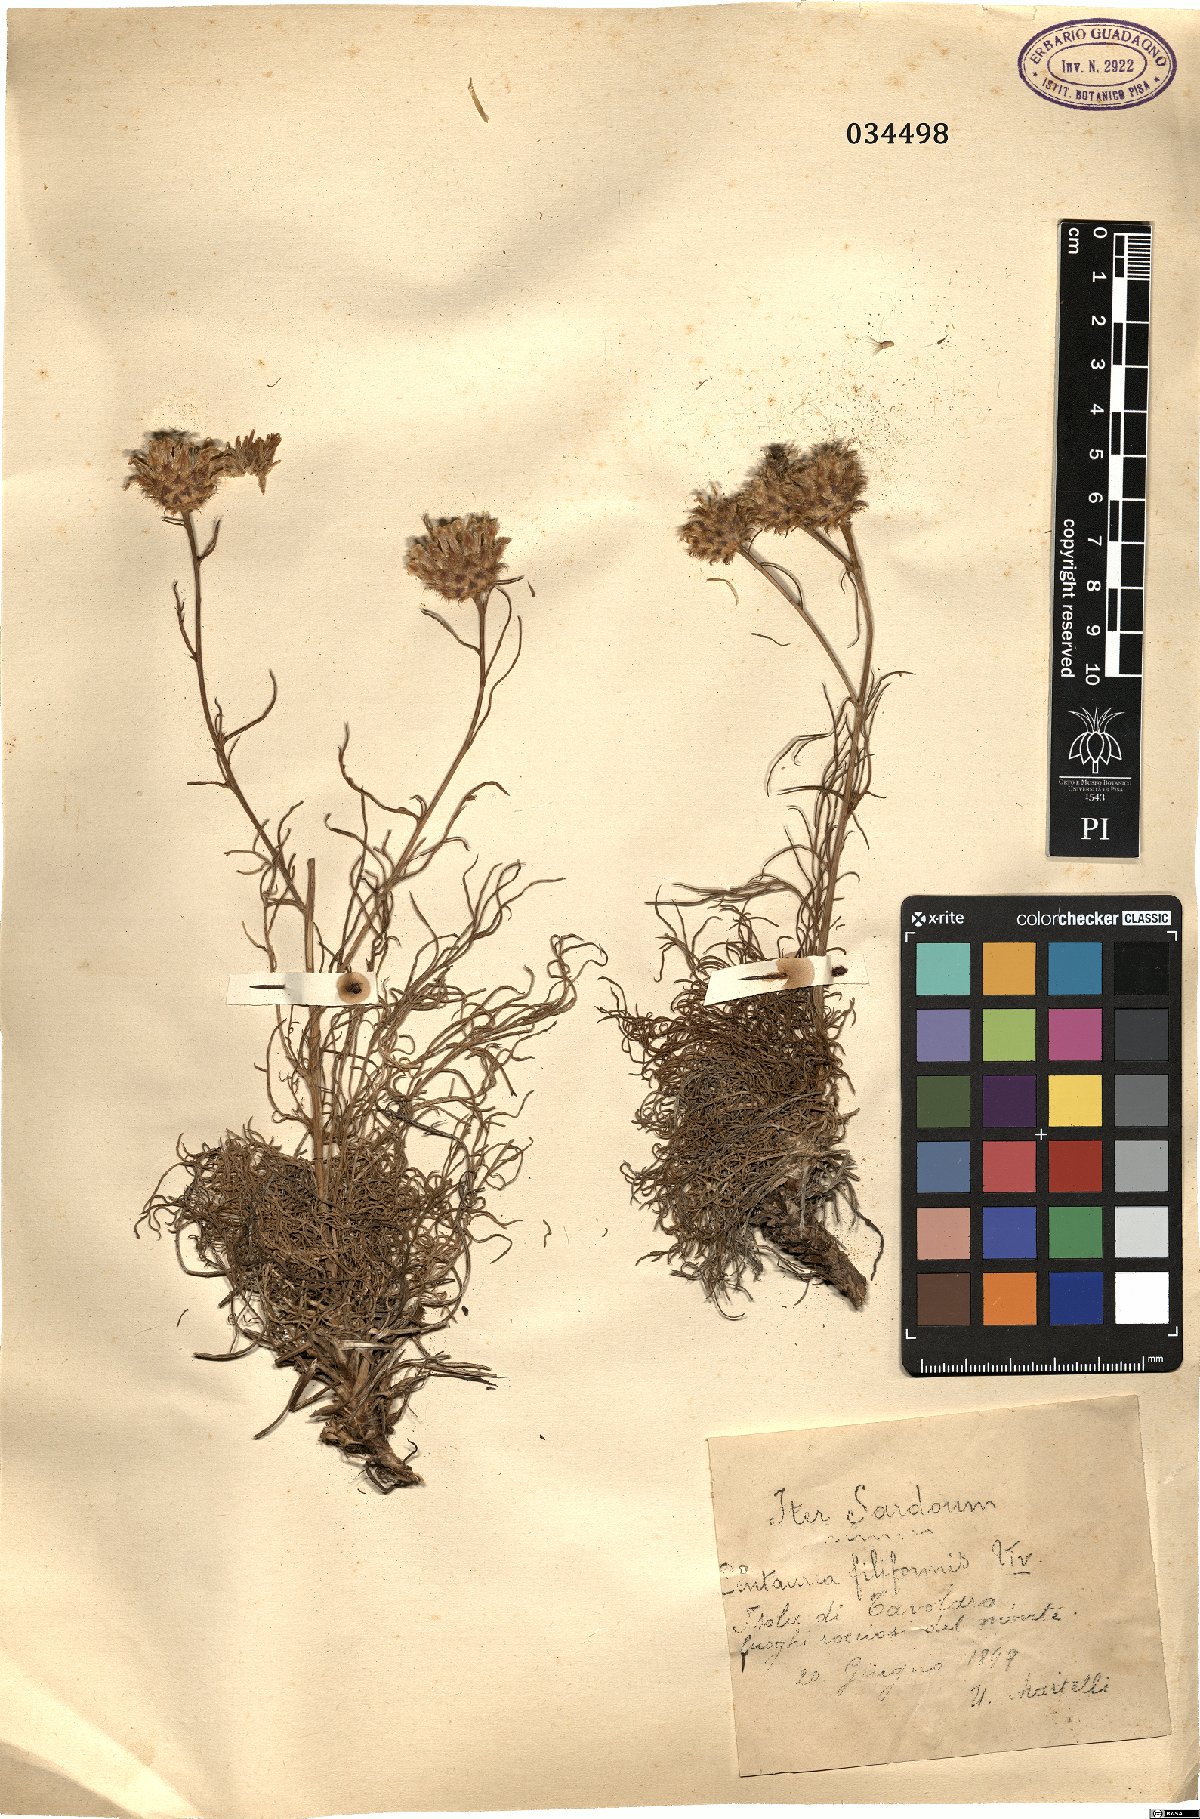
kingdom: Plantae
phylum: Tracheophyta
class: Magnoliopsida
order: Asterales
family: Asteraceae
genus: Centaurea
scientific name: Centaurea filiformis
